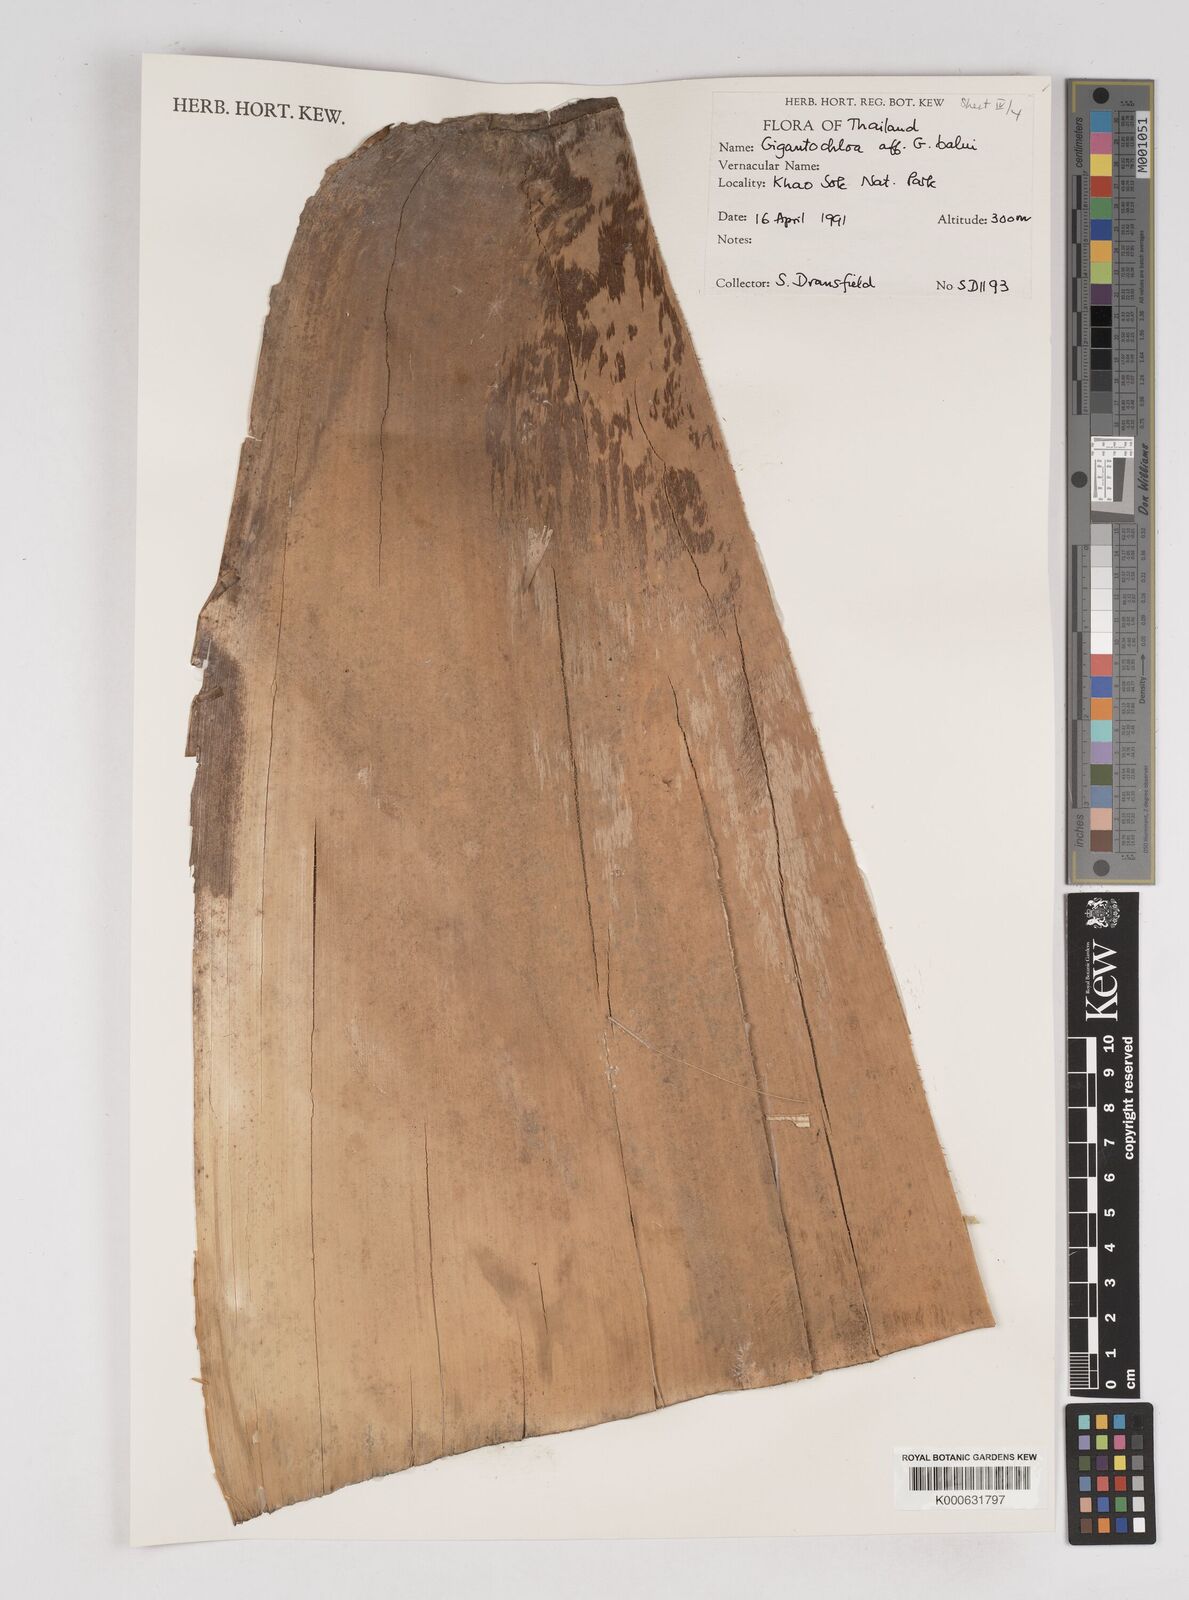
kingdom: Plantae
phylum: Tracheophyta
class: Liliopsida
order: Poales
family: Poaceae
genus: Gigantochloa
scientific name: Gigantochloa
